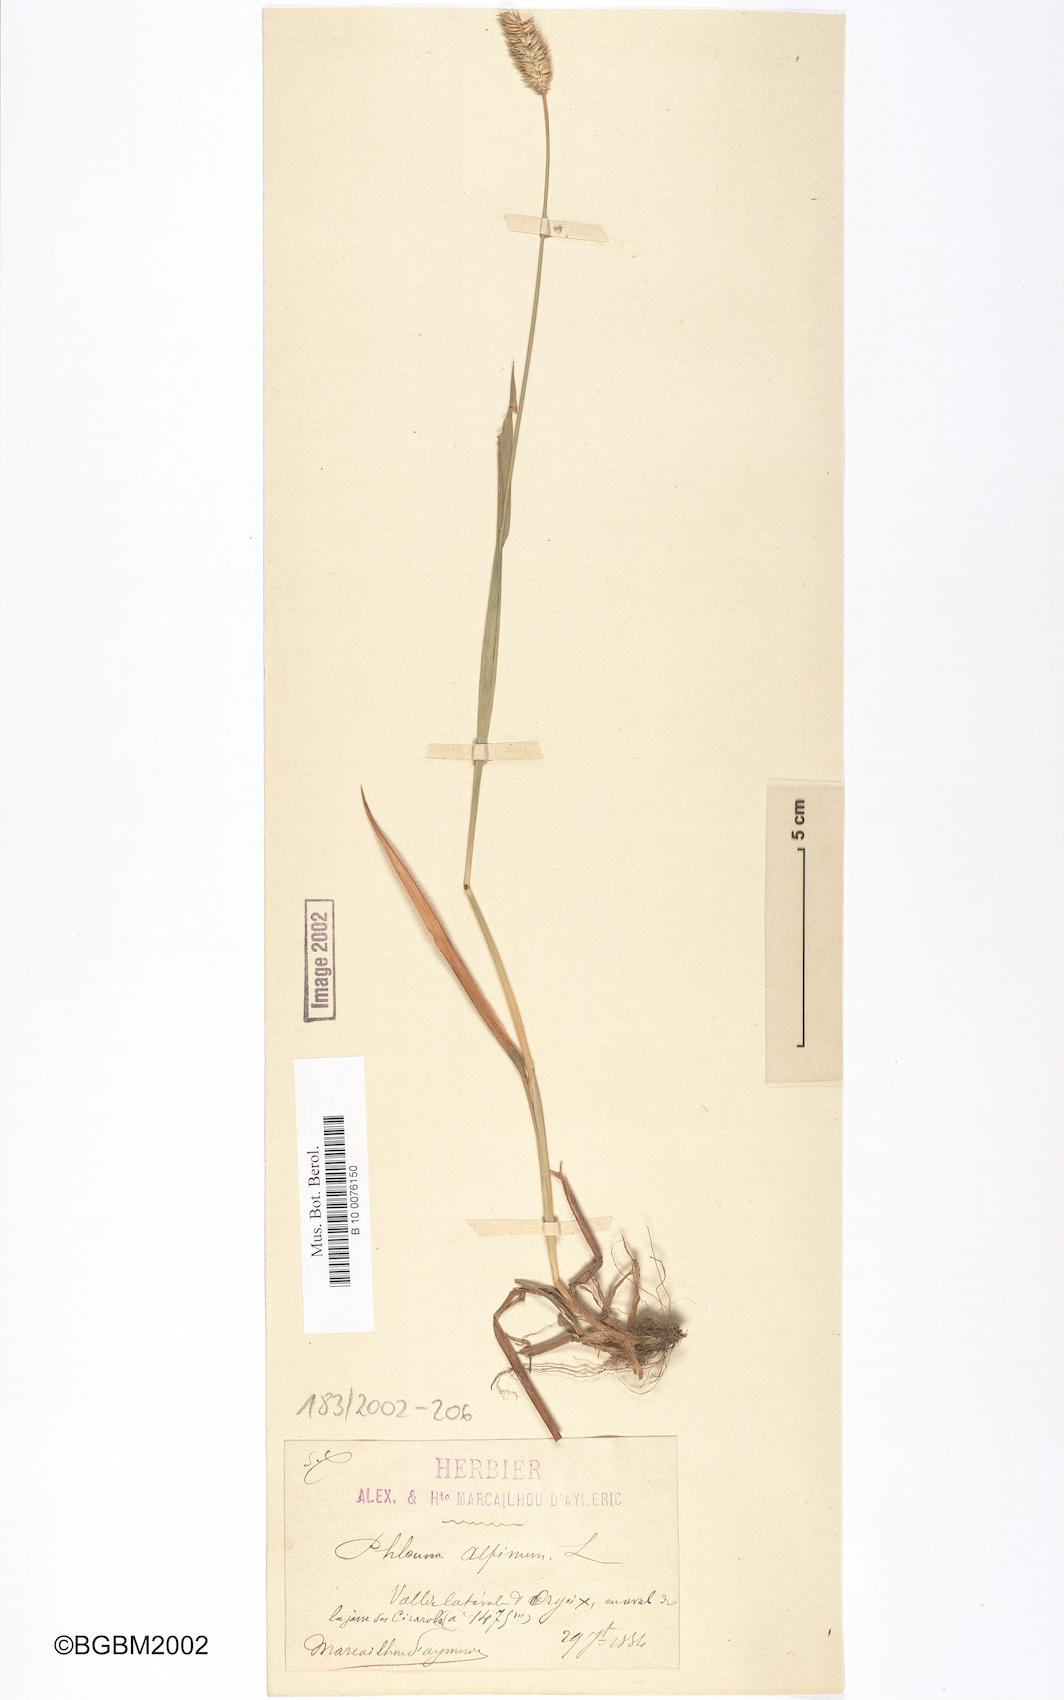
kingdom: Plantae
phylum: Tracheophyta
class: Liliopsida
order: Poales
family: Poaceae
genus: Phleum
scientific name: Phleum alpinum
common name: Alpine cat's-tail
